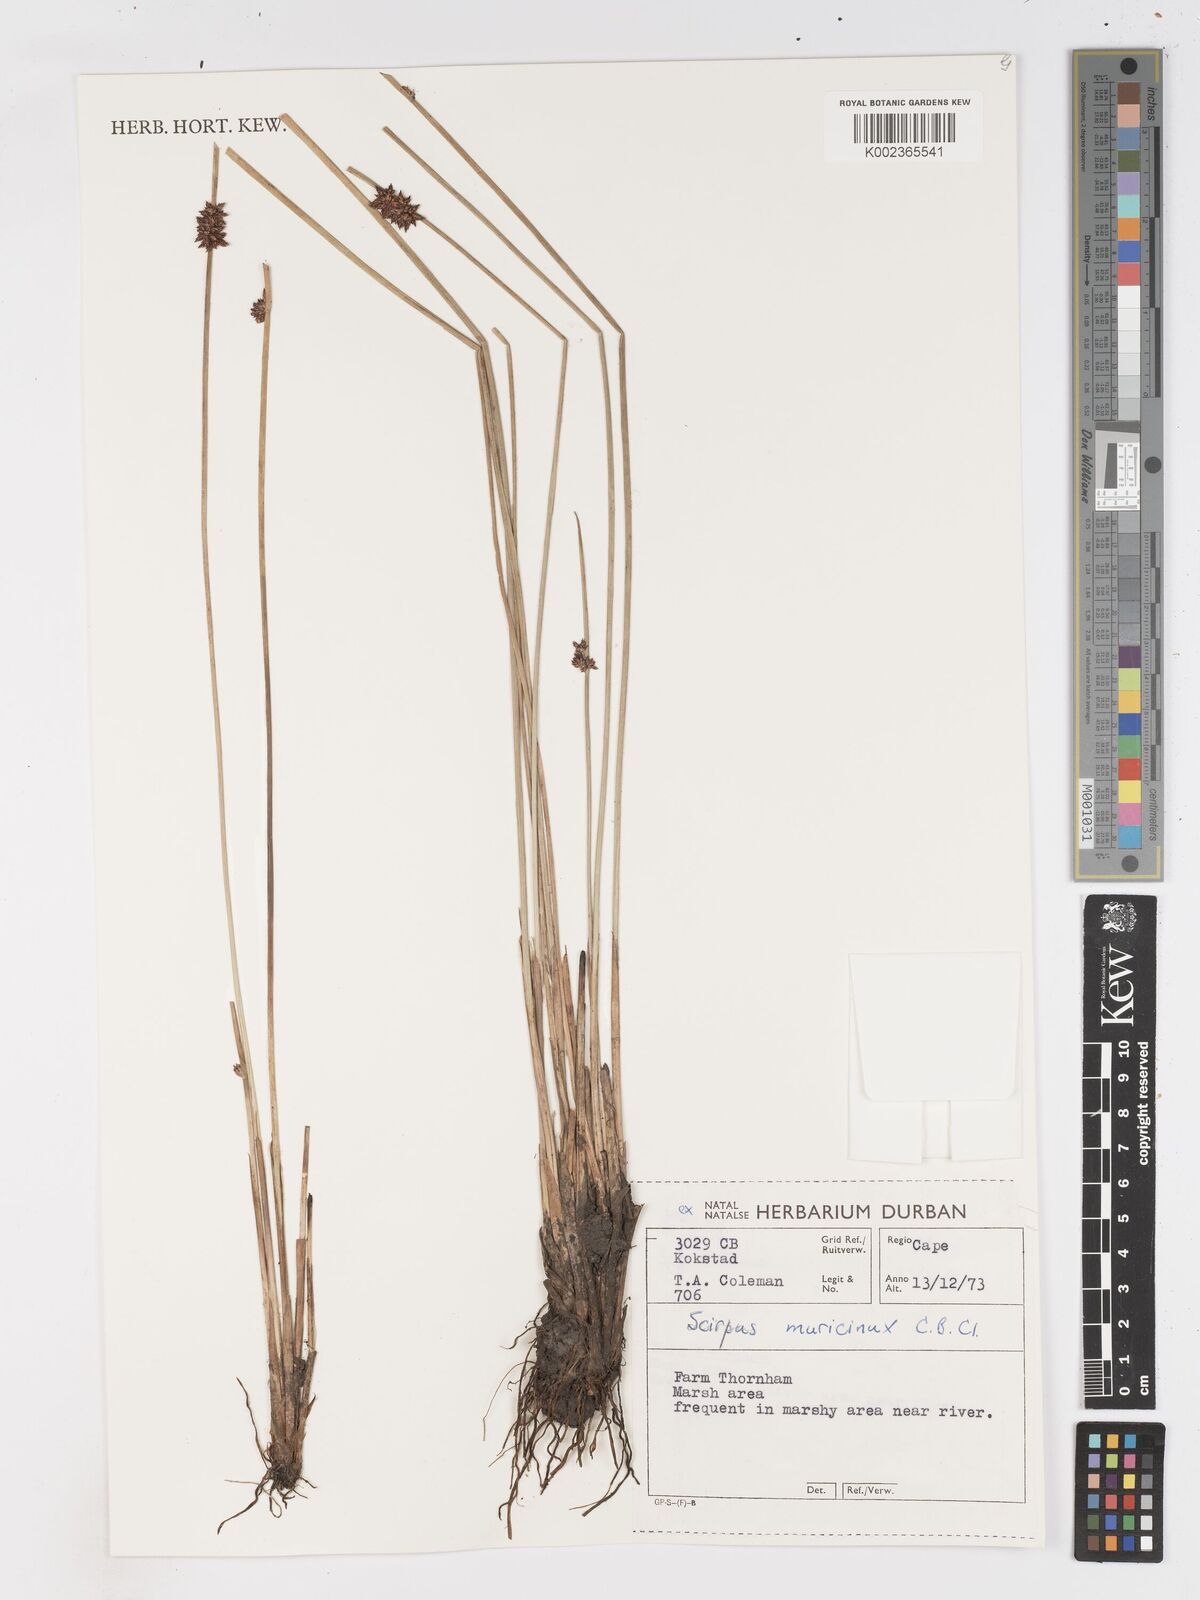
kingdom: Plantae
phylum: Tracheophyta
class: Liliopsida
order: Poales
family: Cyperaceae
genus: Schoenoplectiella
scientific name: Schoenoplectiella muricinux
